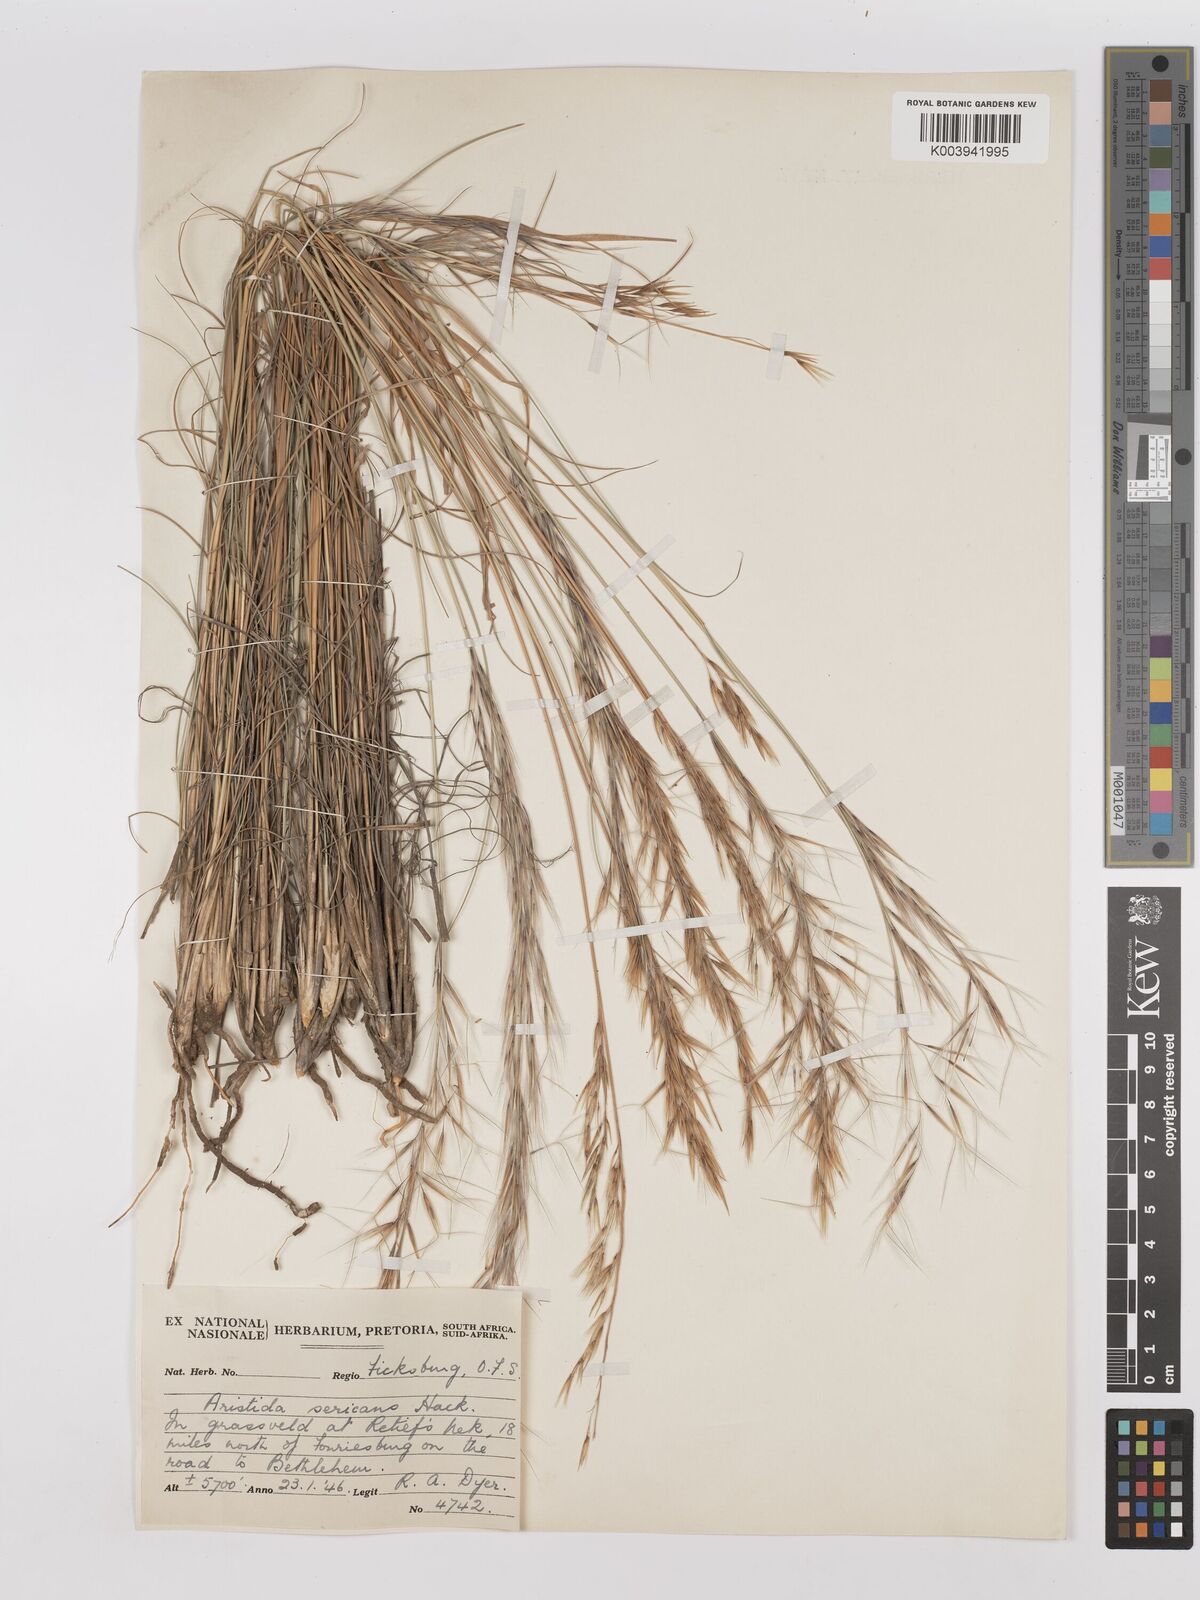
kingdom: Plantae
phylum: Tracheophyta
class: Liliopsida
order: Poales
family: Poaceae
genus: Stipagrostis
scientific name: Stipagrostis zeyheri
